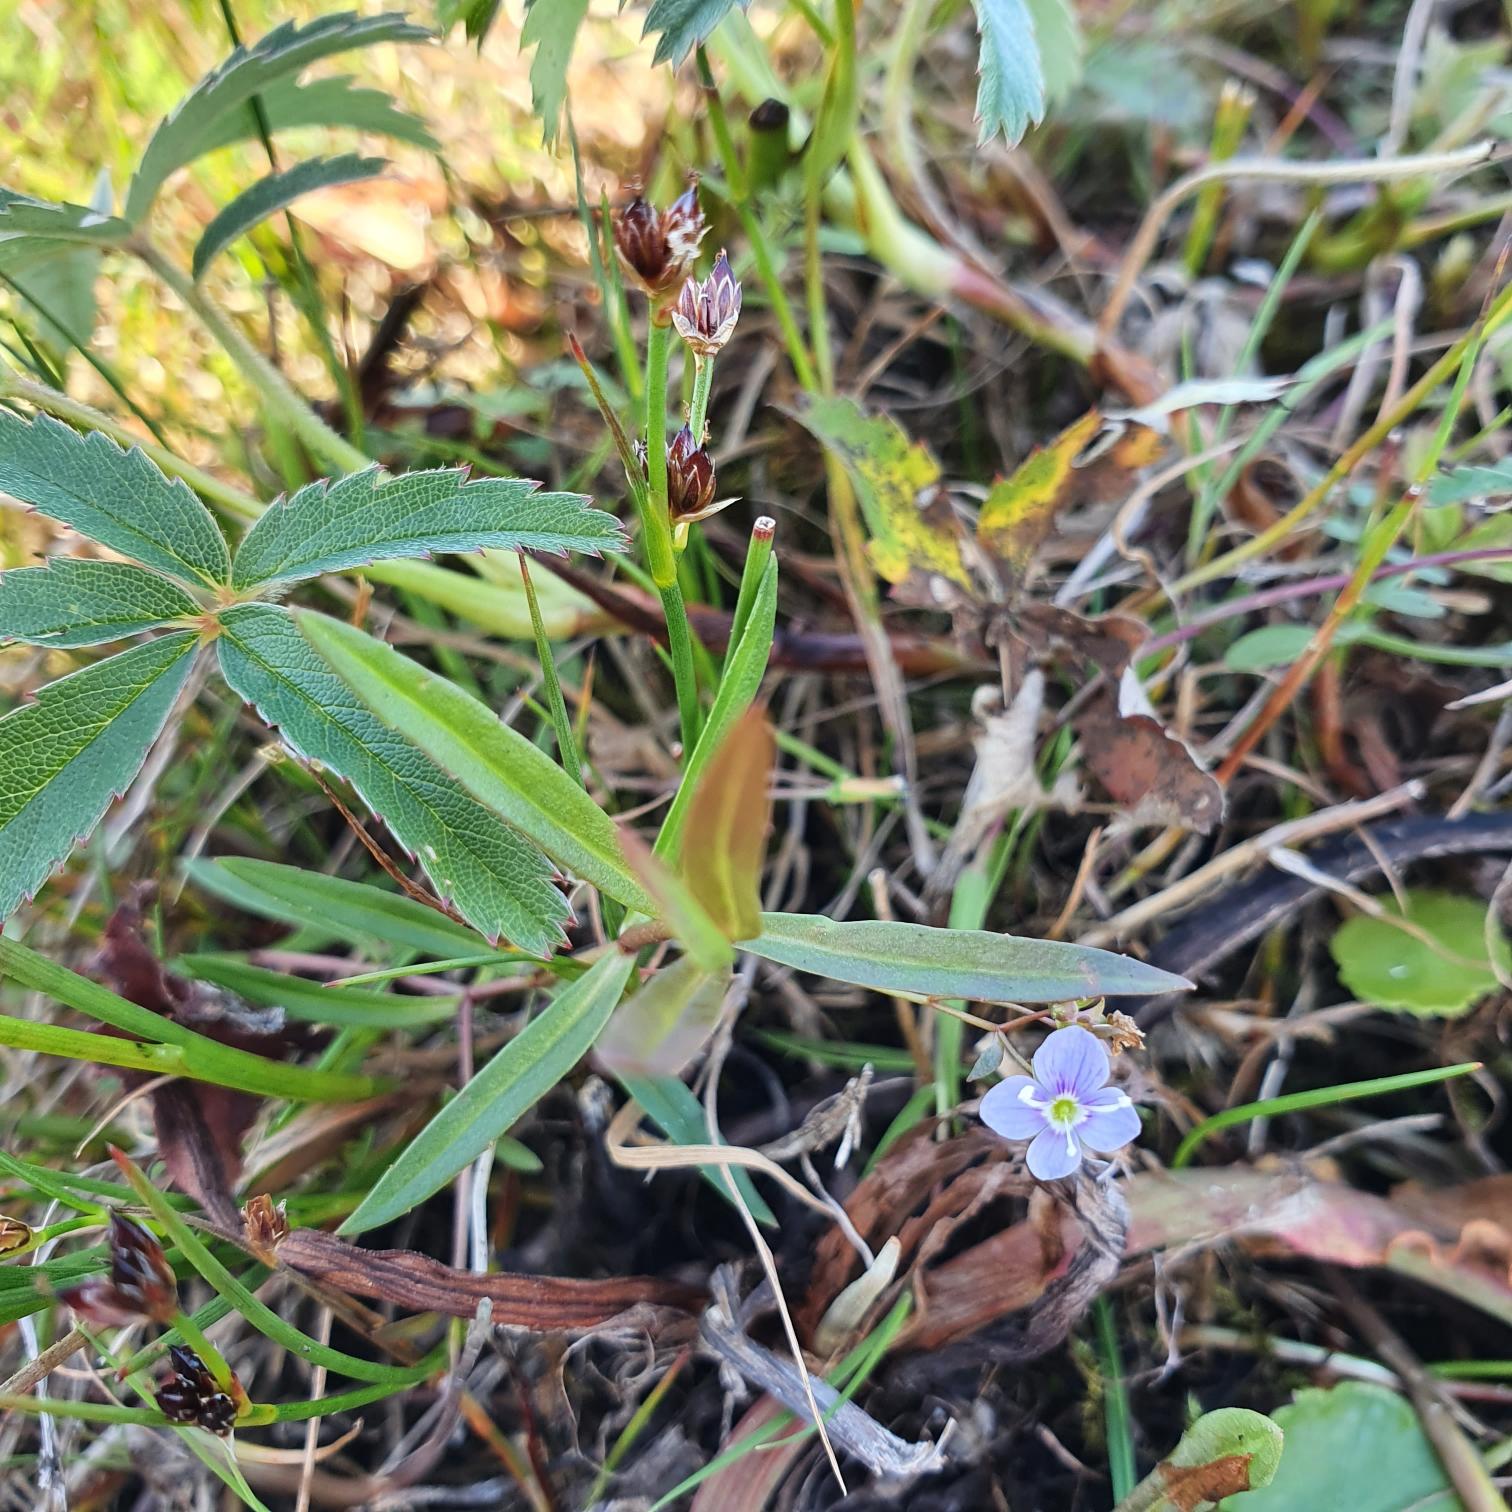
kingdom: Plantae
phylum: Tracheophyta
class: Magnoliopsida
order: Lamiales
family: Plantaginaceae
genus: Veronica
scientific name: Veronica scutellata
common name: Smalbladet ærenpris
